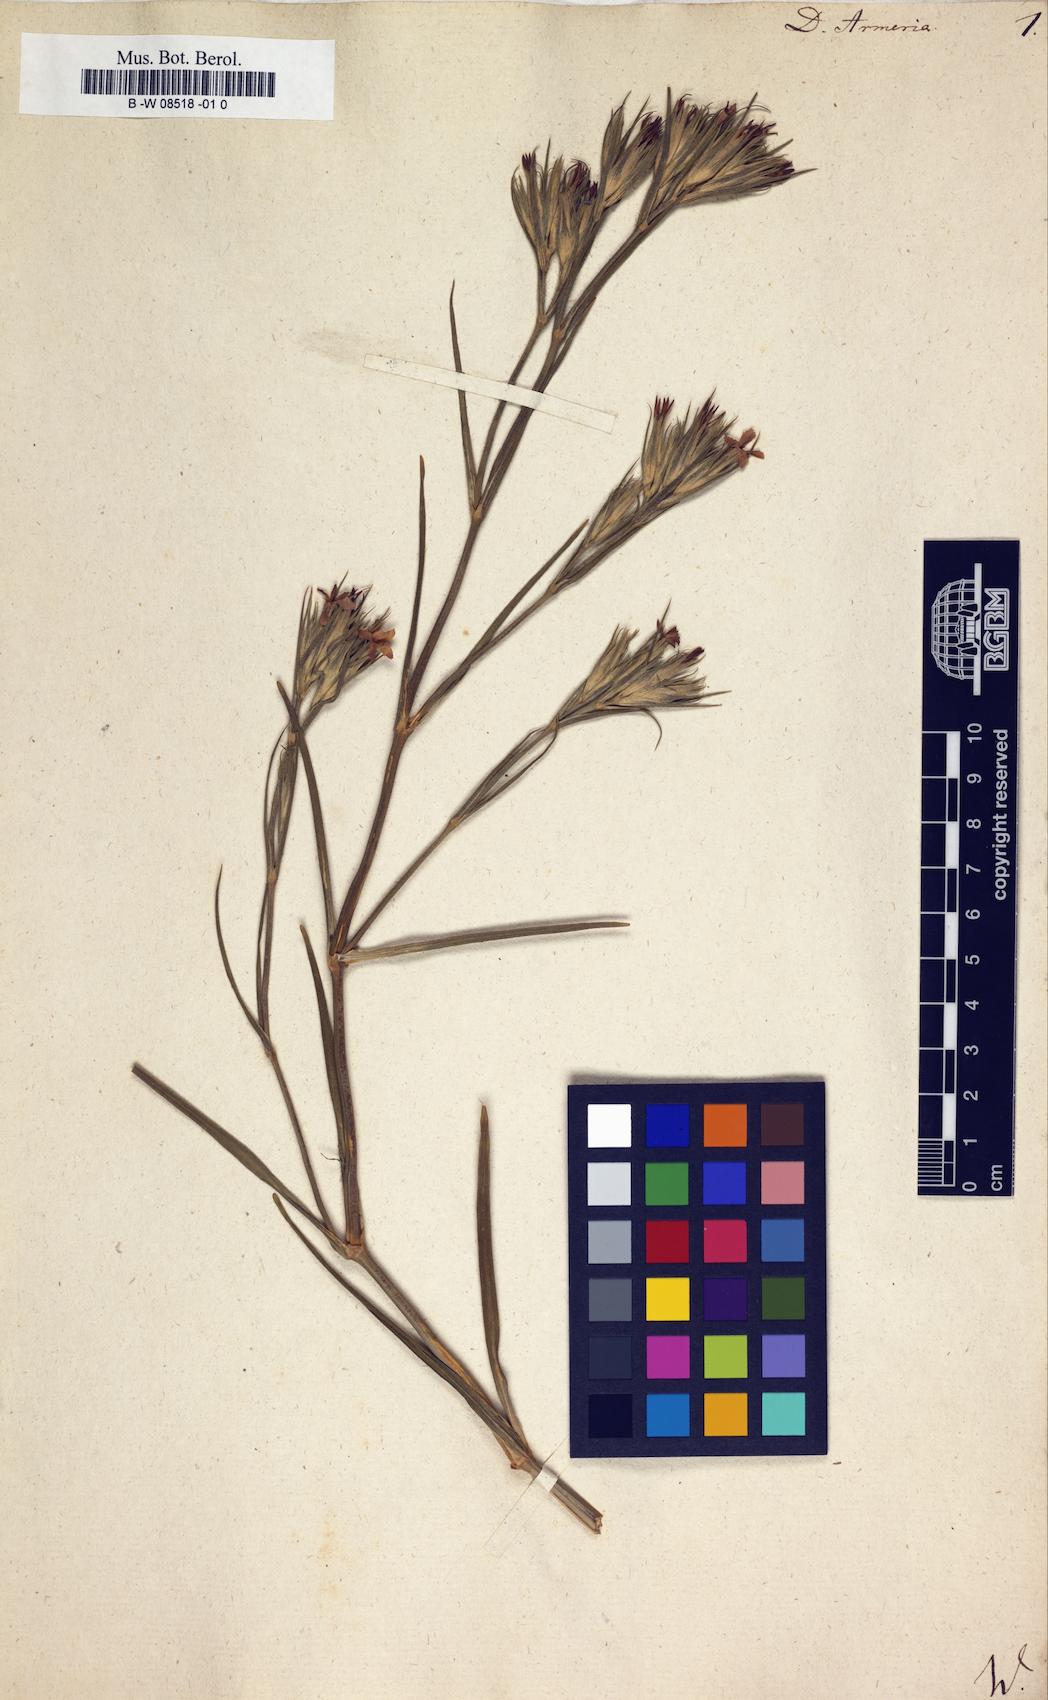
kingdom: Plantae
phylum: Tracheophyta
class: Magnoliopsida
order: Caryophyllales
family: Caryophyllaceae
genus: Dianthus
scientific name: Dianthus armeria
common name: Deptford pink
